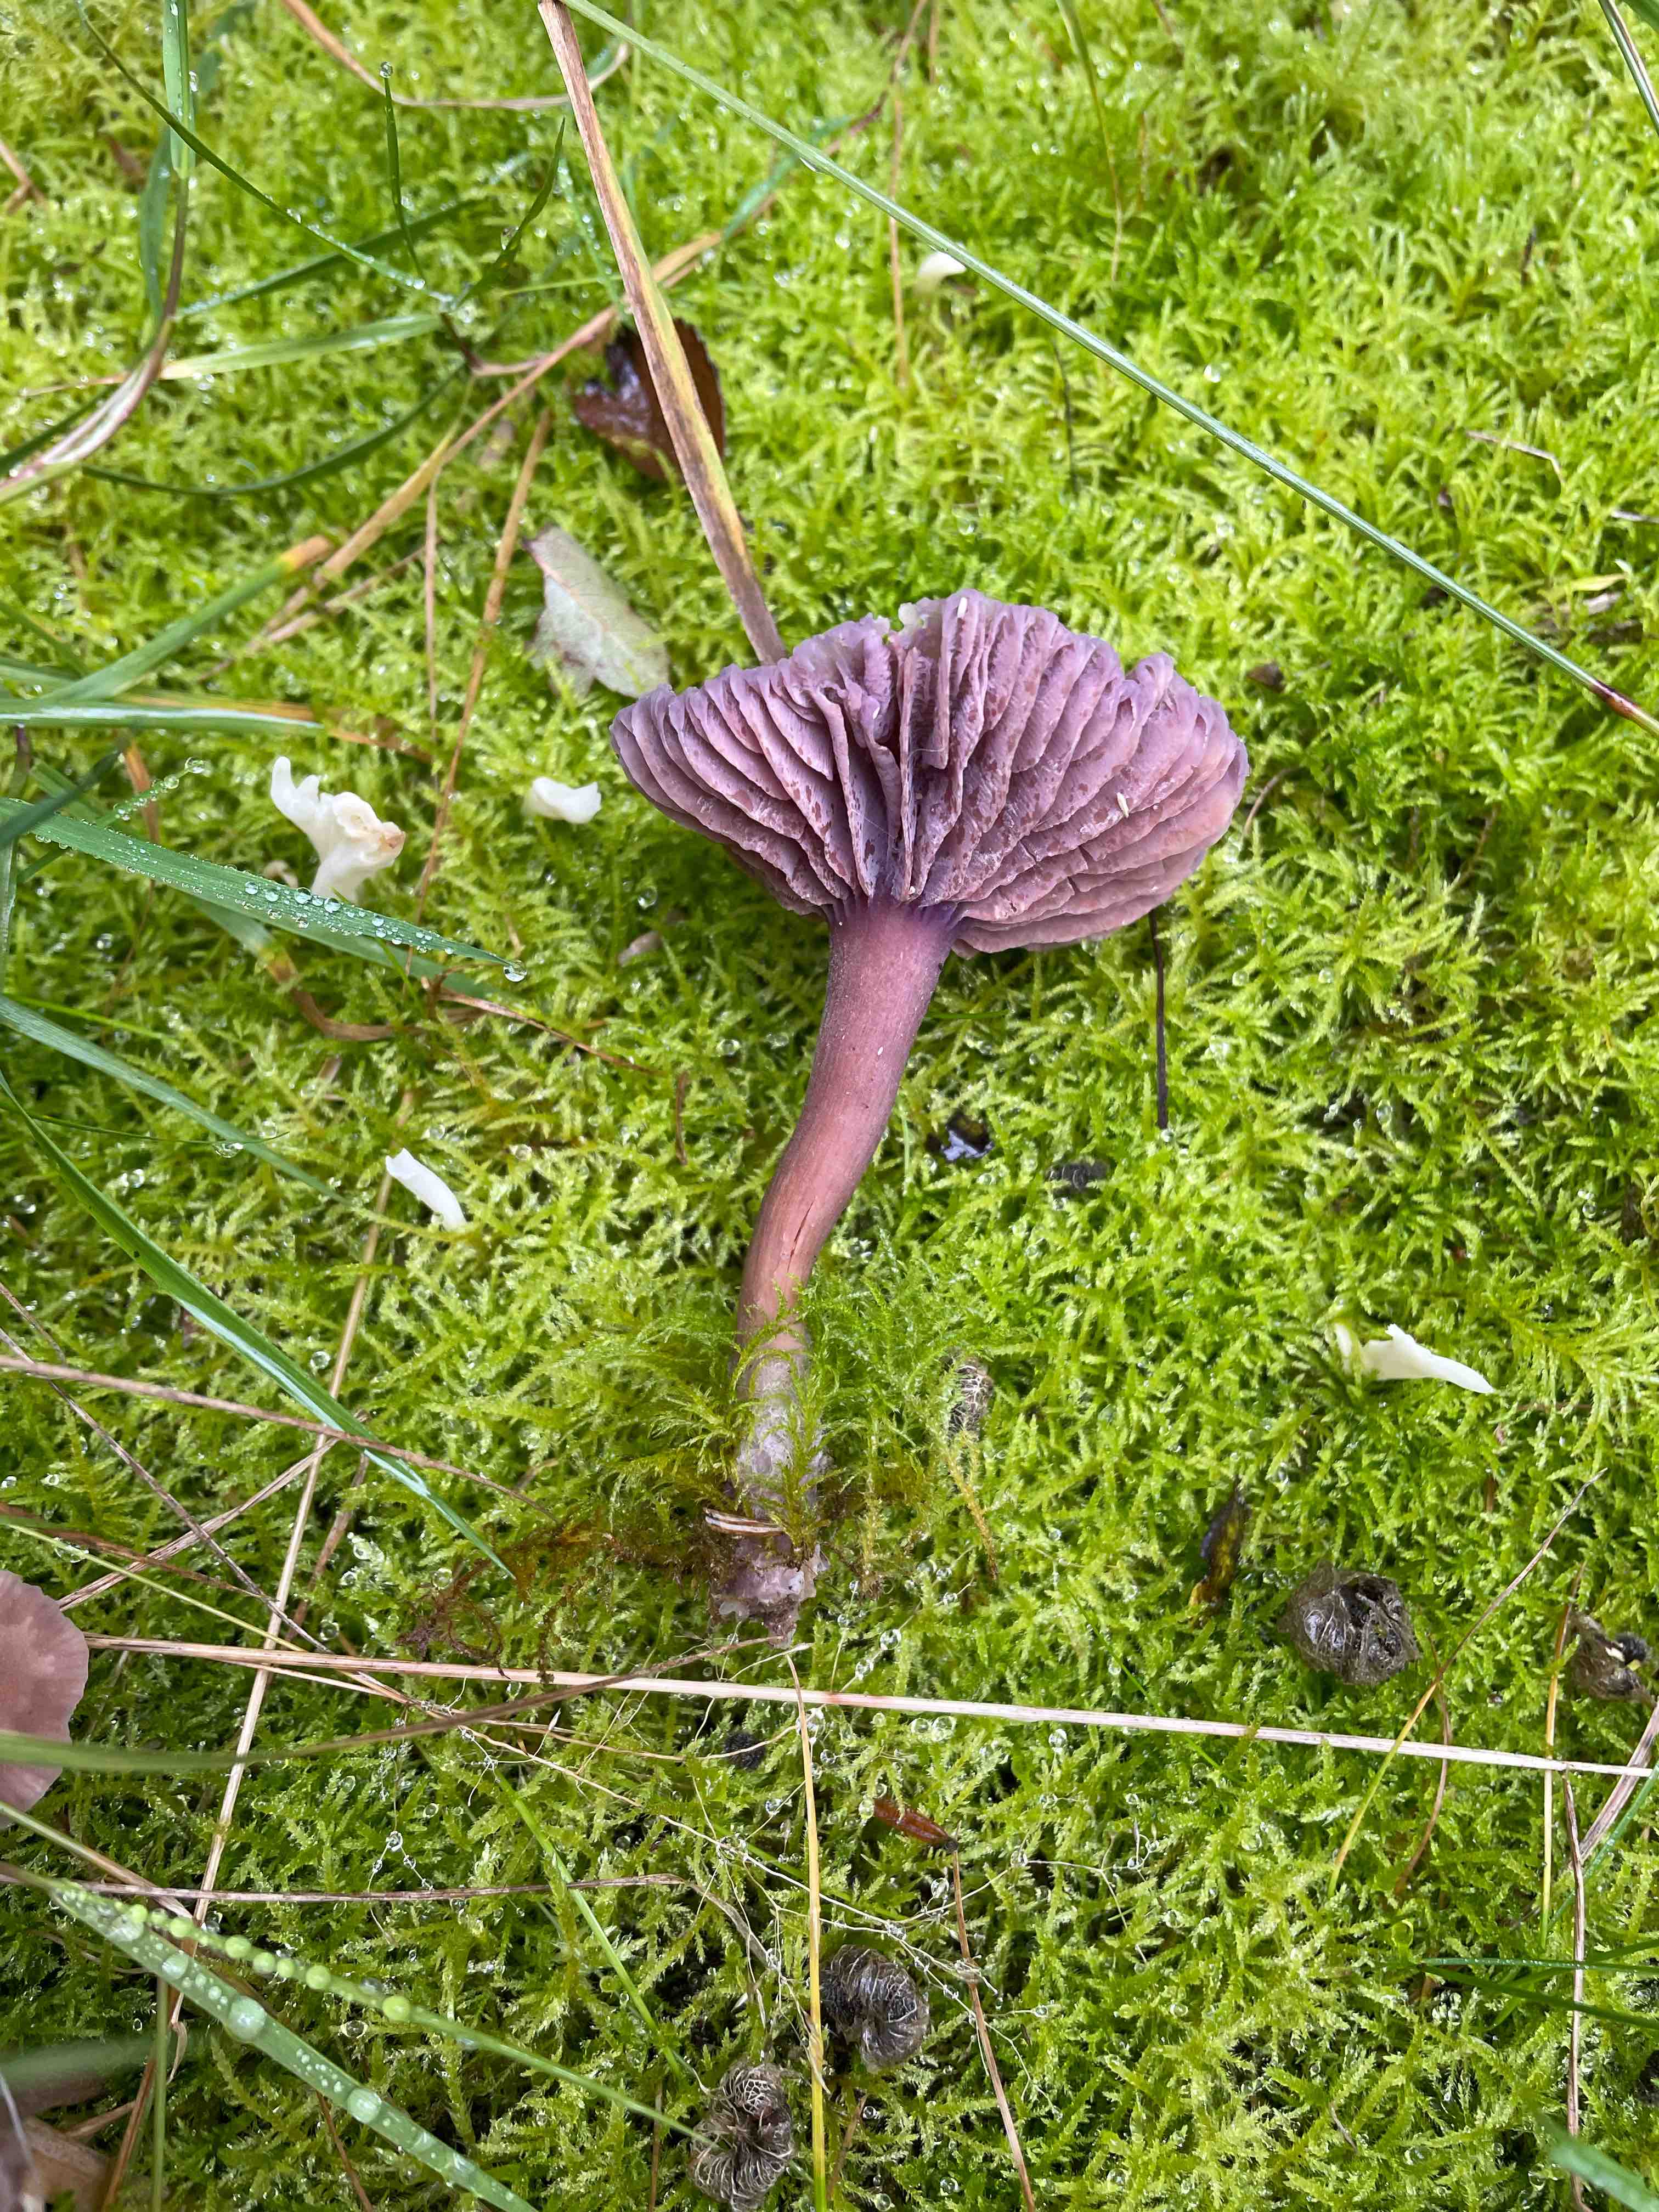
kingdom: Fungi
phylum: Basidiomycota
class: Agaricomycetes
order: Agaricales
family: Hydnangiaceae
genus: Laccaria
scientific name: Laccaria amethystina
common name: violet ametysthat
